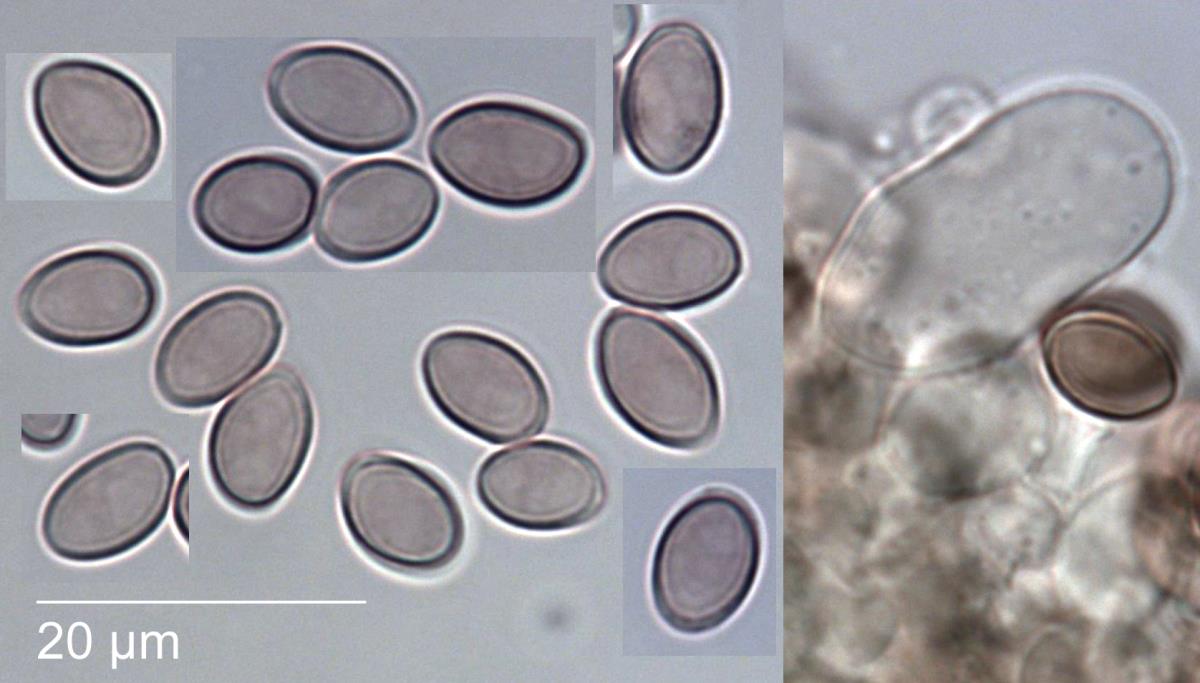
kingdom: Fungi
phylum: Basidiomycota
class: Agaricomycetes
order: Agaricales
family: Psathyrellaceae
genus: Psathyrella
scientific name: Psathyrella
